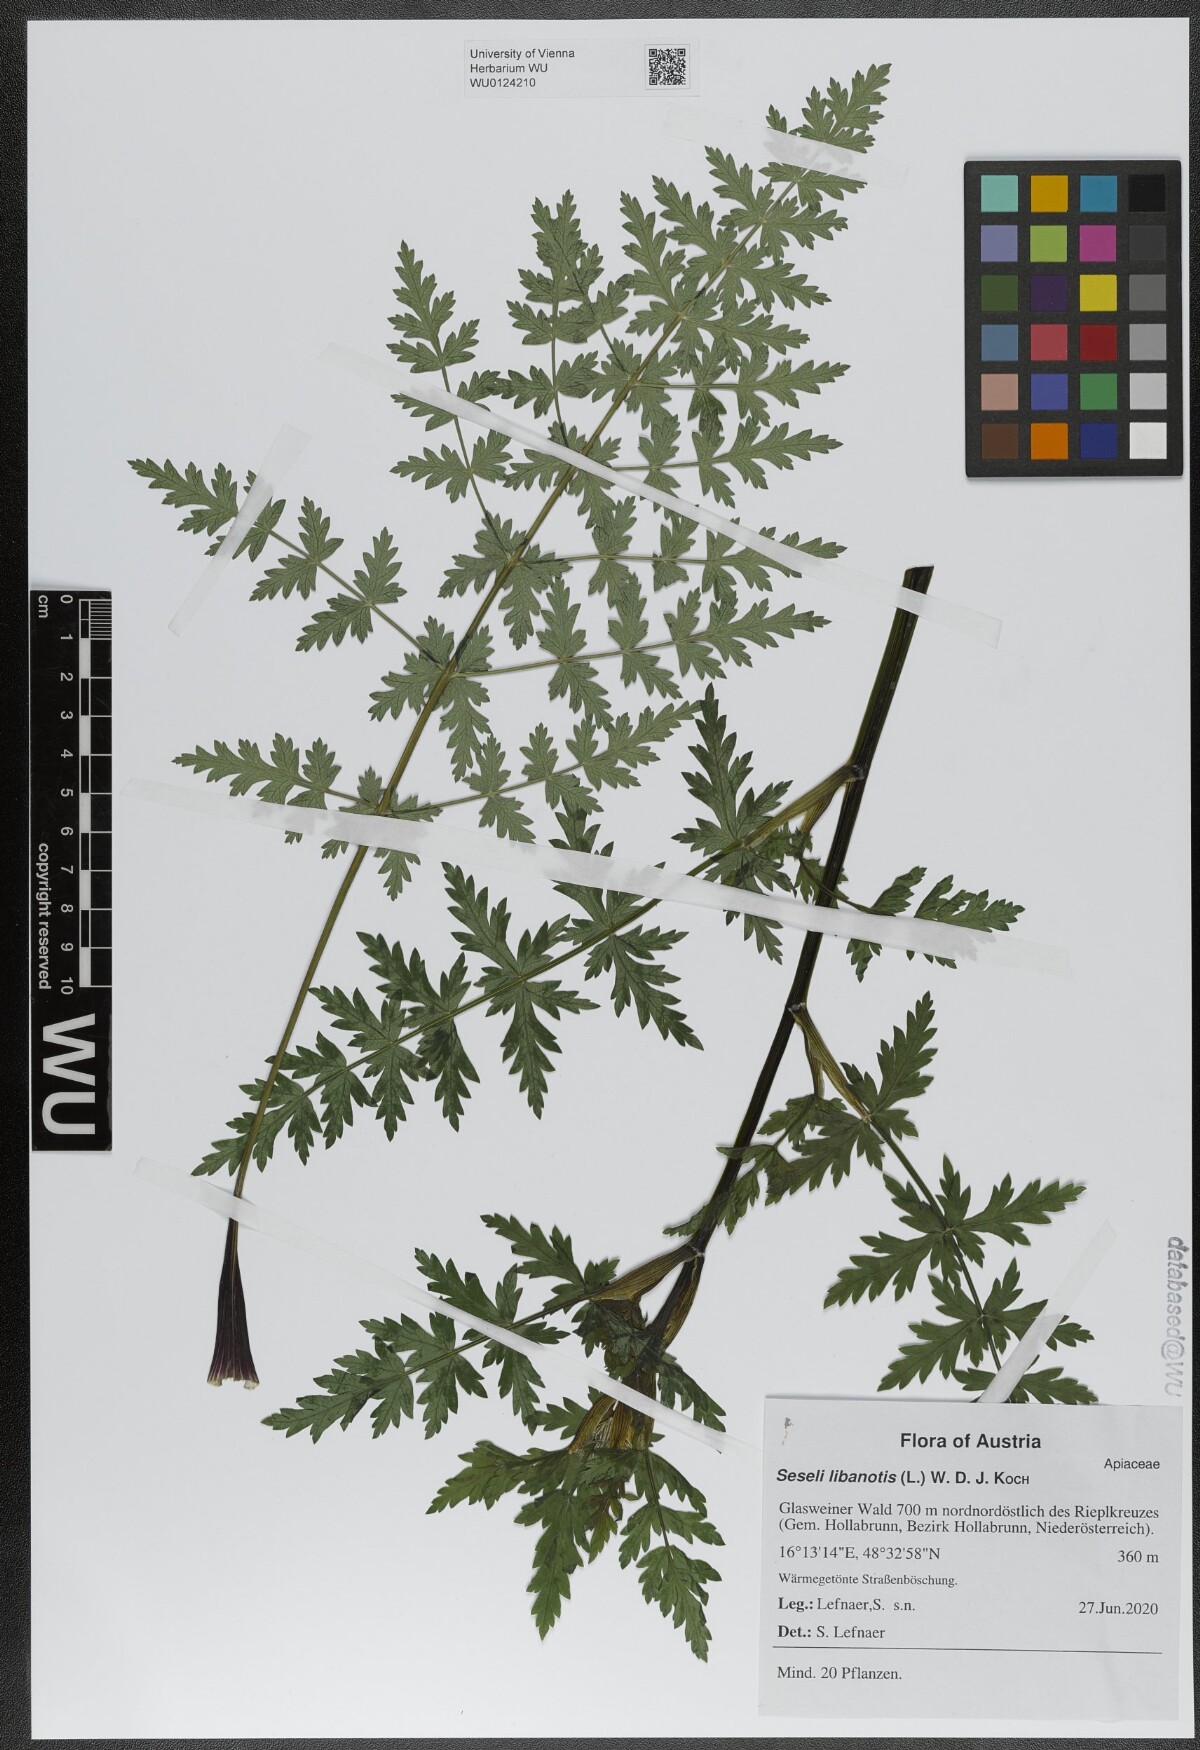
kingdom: Plantae
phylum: Tracheophyta
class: Magnoliopsida
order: Apiales
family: Apiaceae
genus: Seseli
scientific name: Seseli libanotis
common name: Mooncarrot
